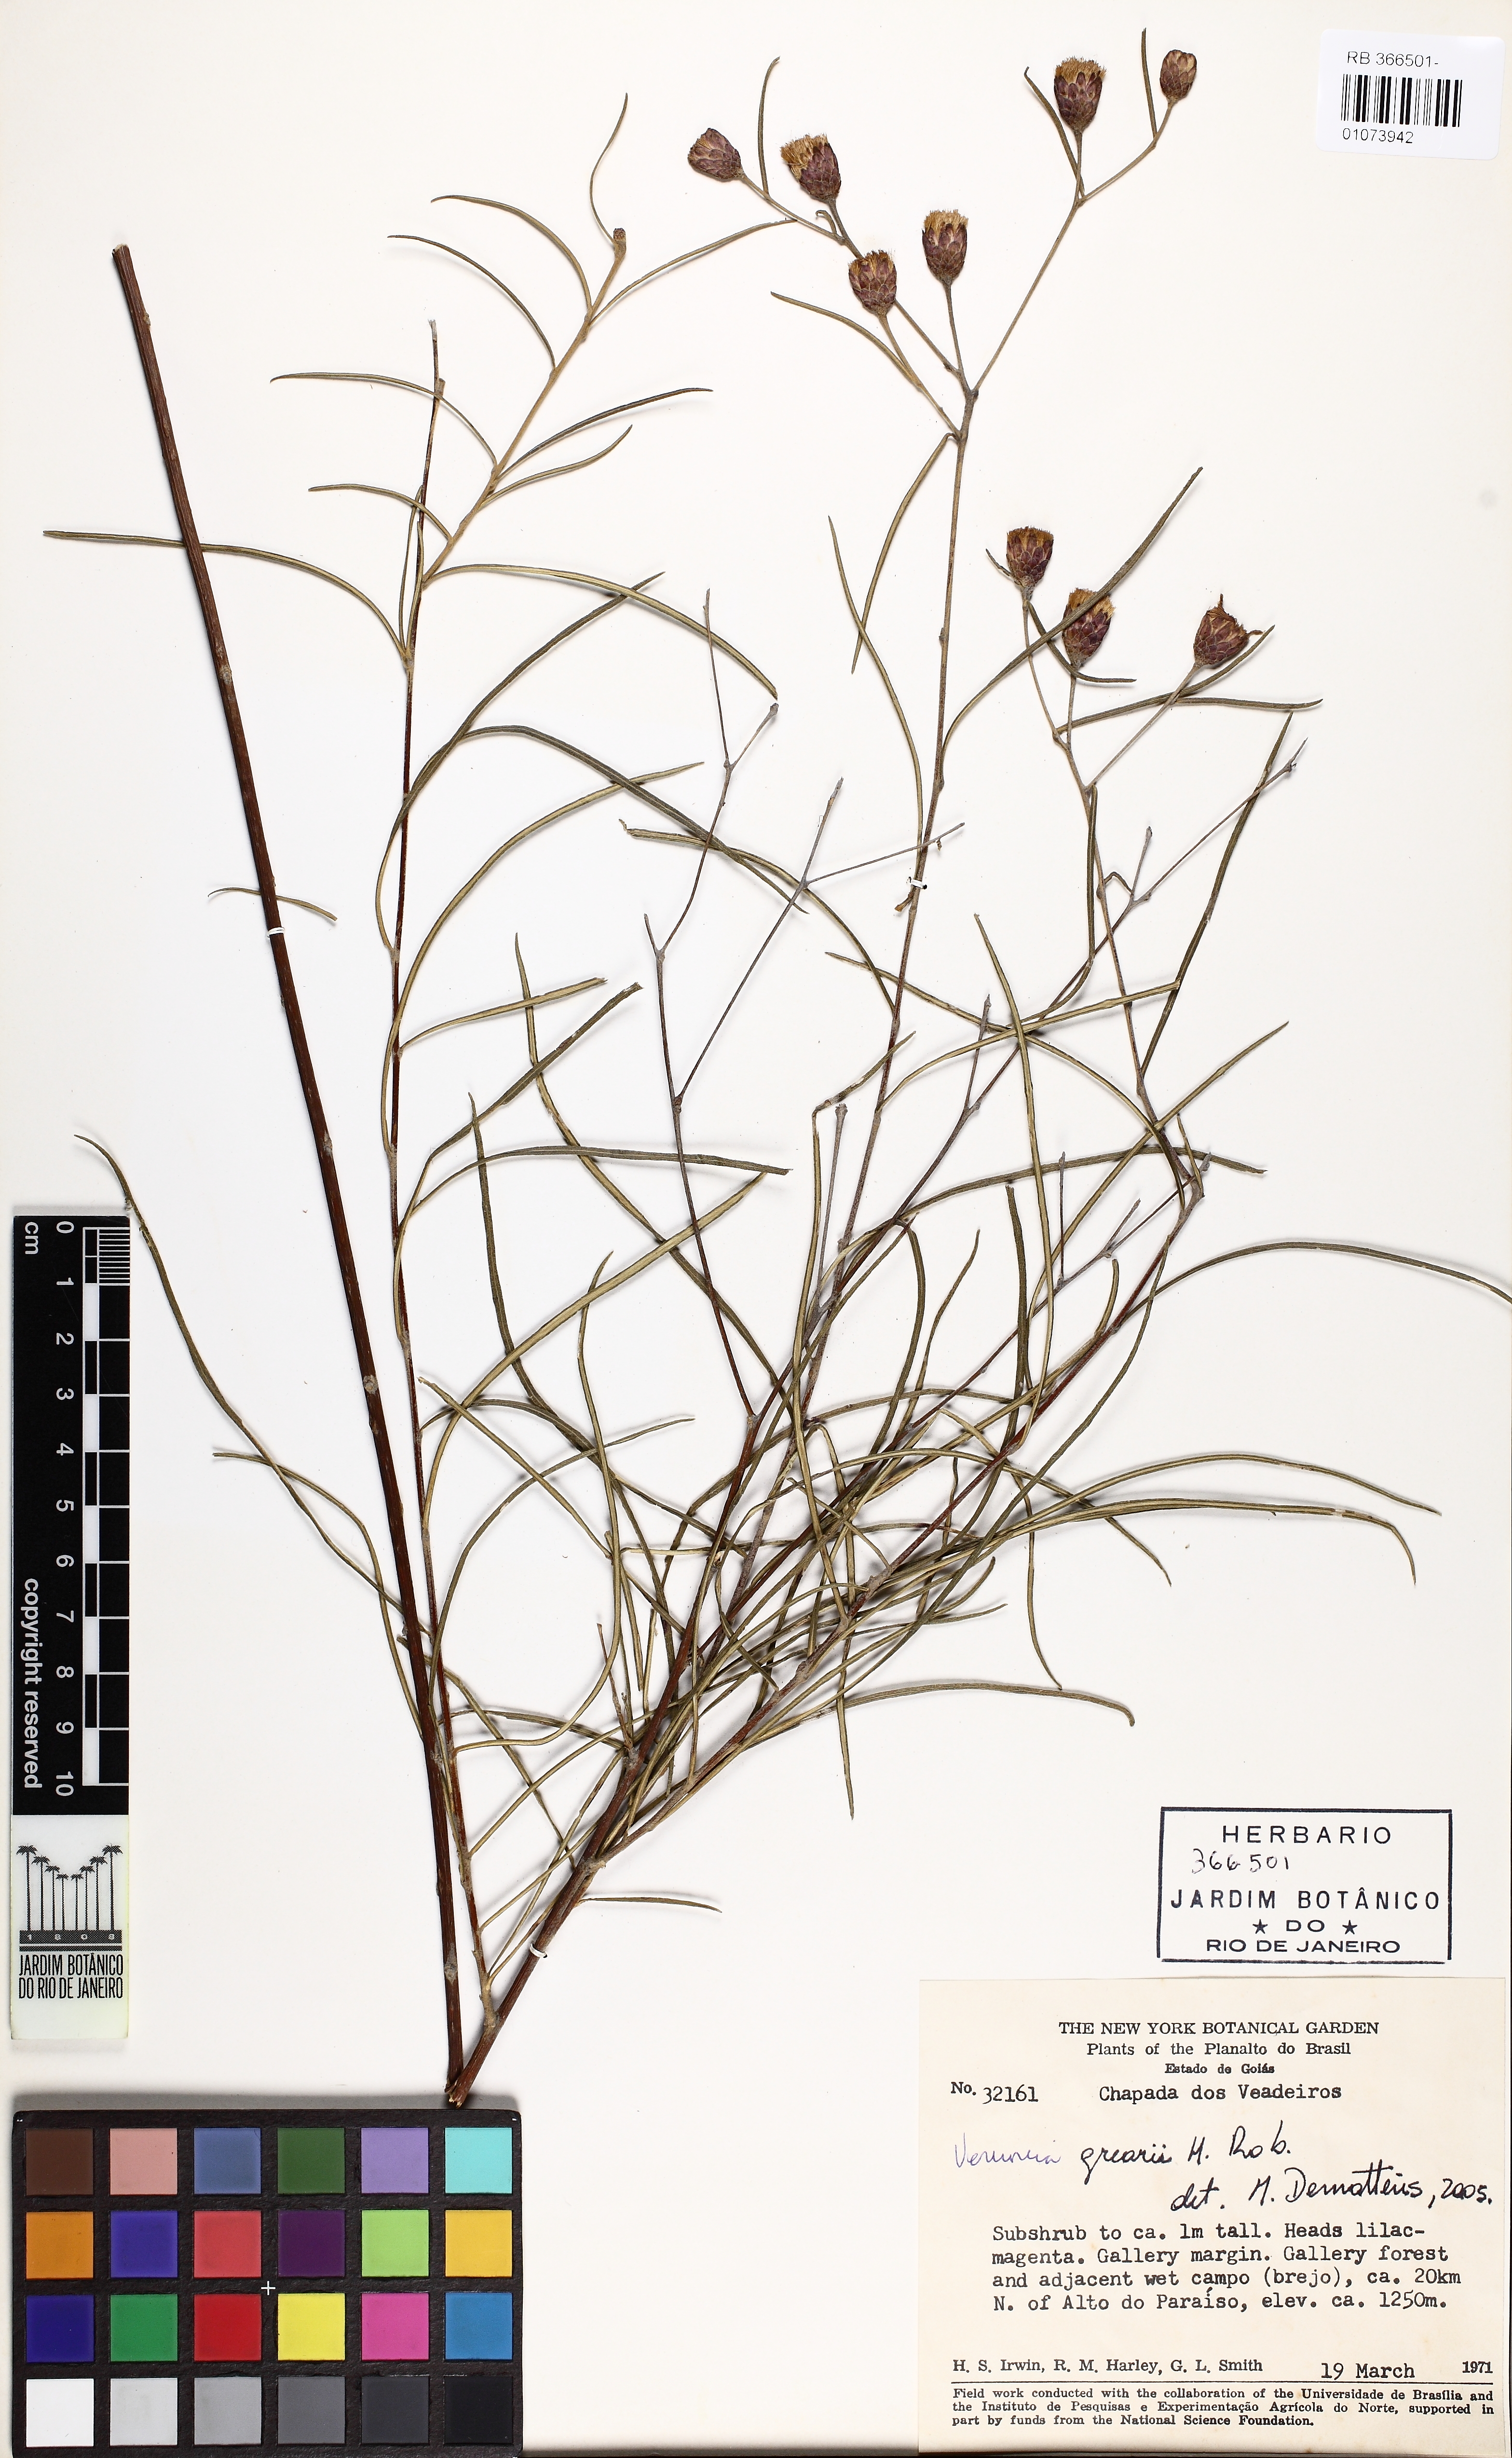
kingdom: Plantae
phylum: Tracheophyta
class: Magnoliopsida
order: Asterales
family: Asteraceae
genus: Lessingianthus
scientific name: Lessingianthus grearii
